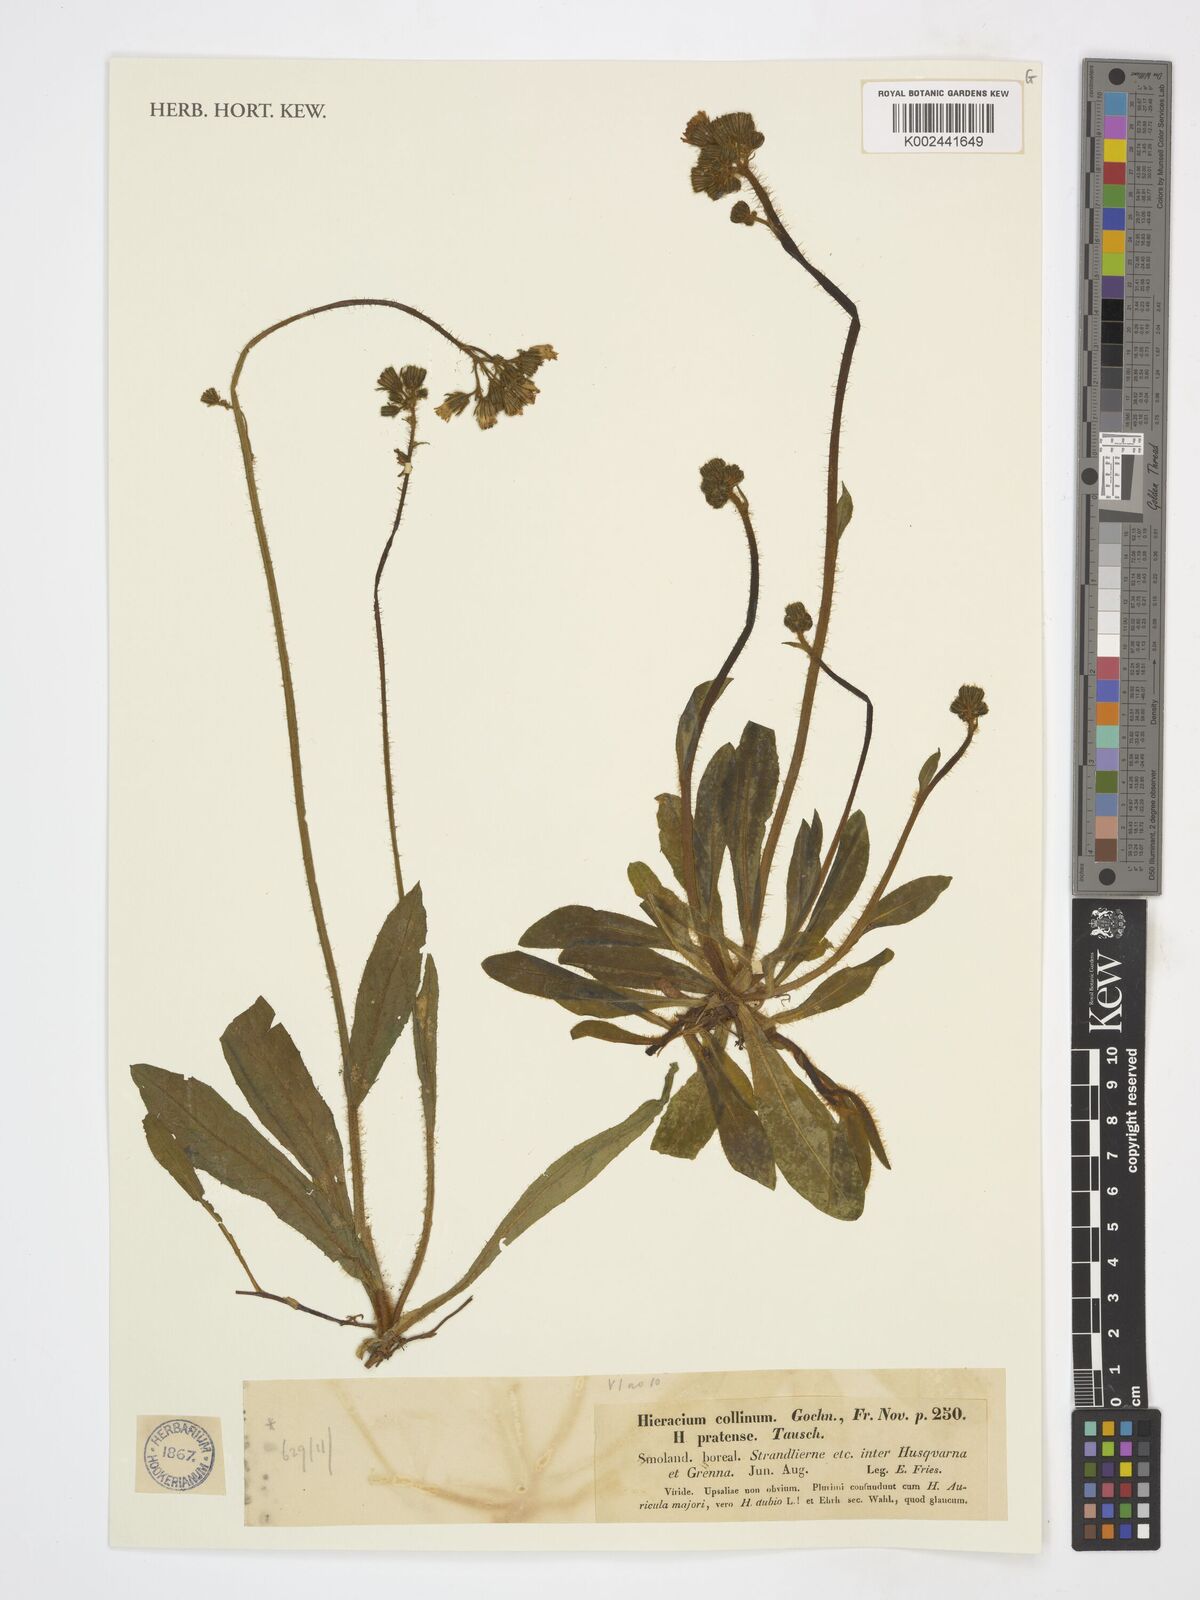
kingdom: Plantae
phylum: Tracheophyta
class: Magnoliopsida
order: Asterales
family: Asteraceae
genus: Pilosella
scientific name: Pilosella cymosa
